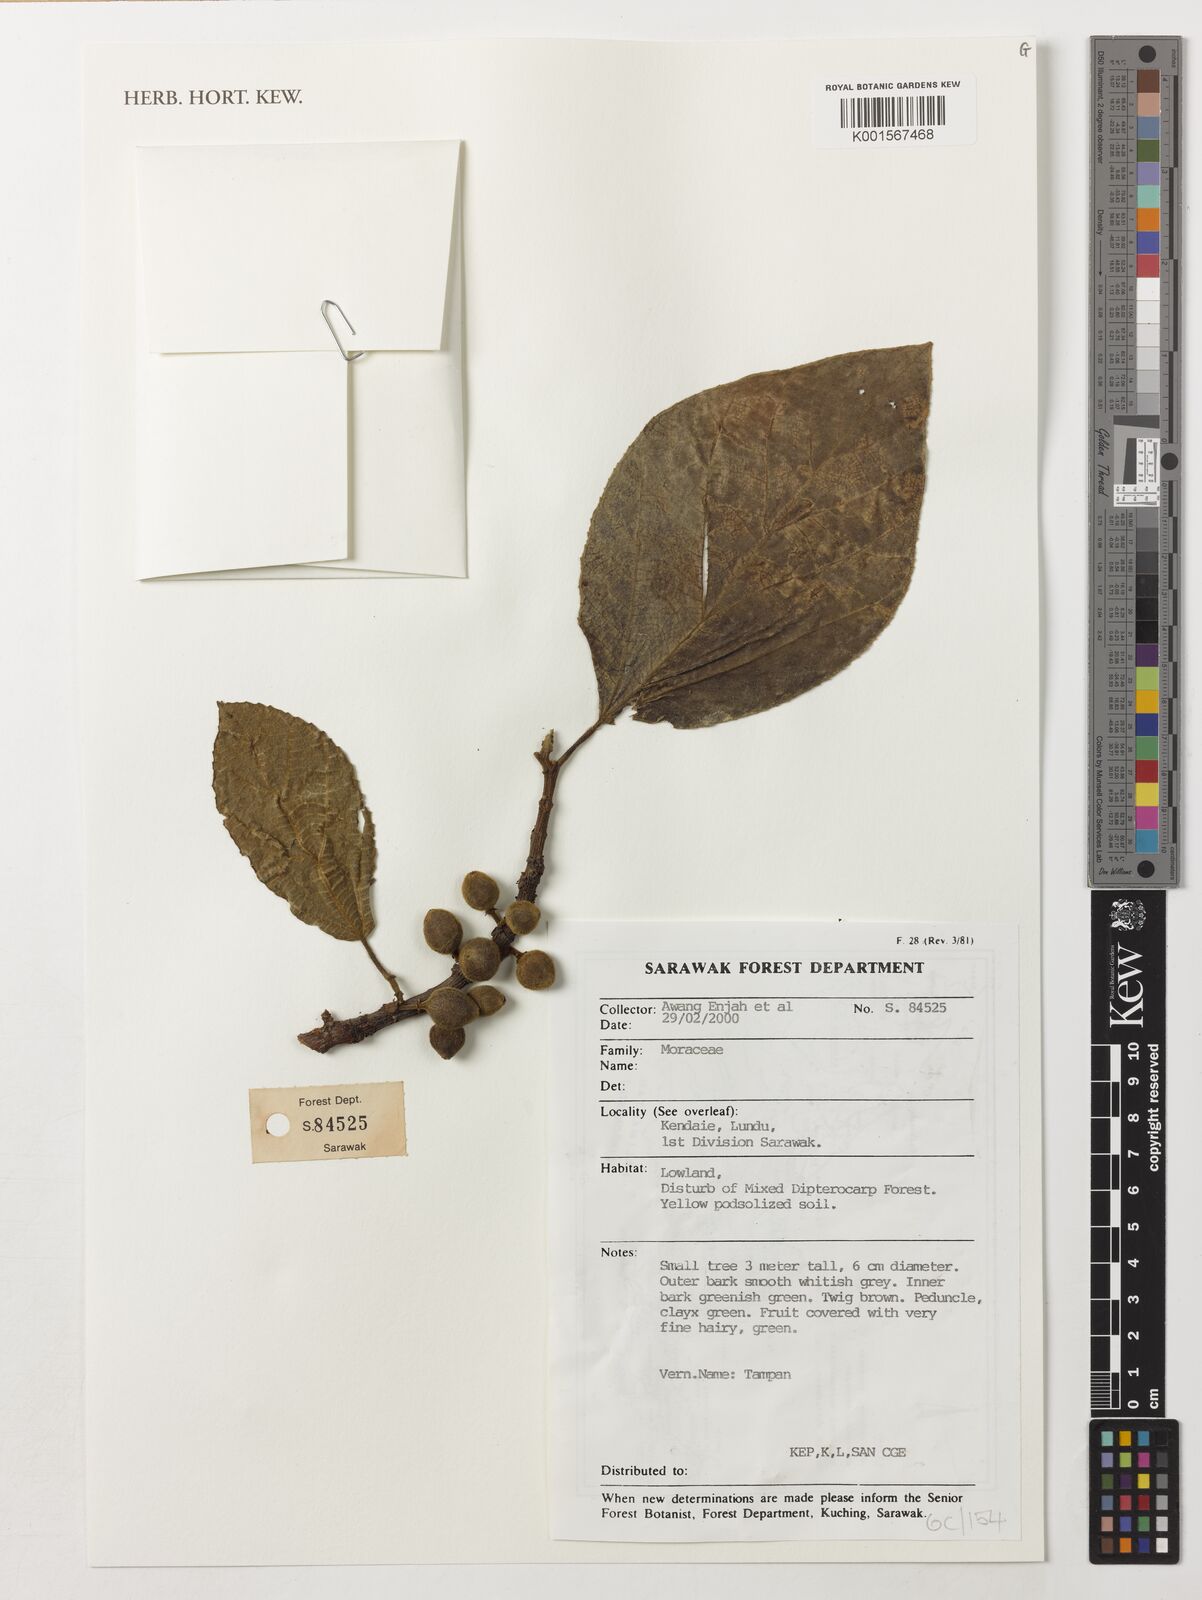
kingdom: Plantae
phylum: Tracheophyta
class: Magnoliopsida
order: Rosales
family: Moraceae
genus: Ficus
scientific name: Ficus
